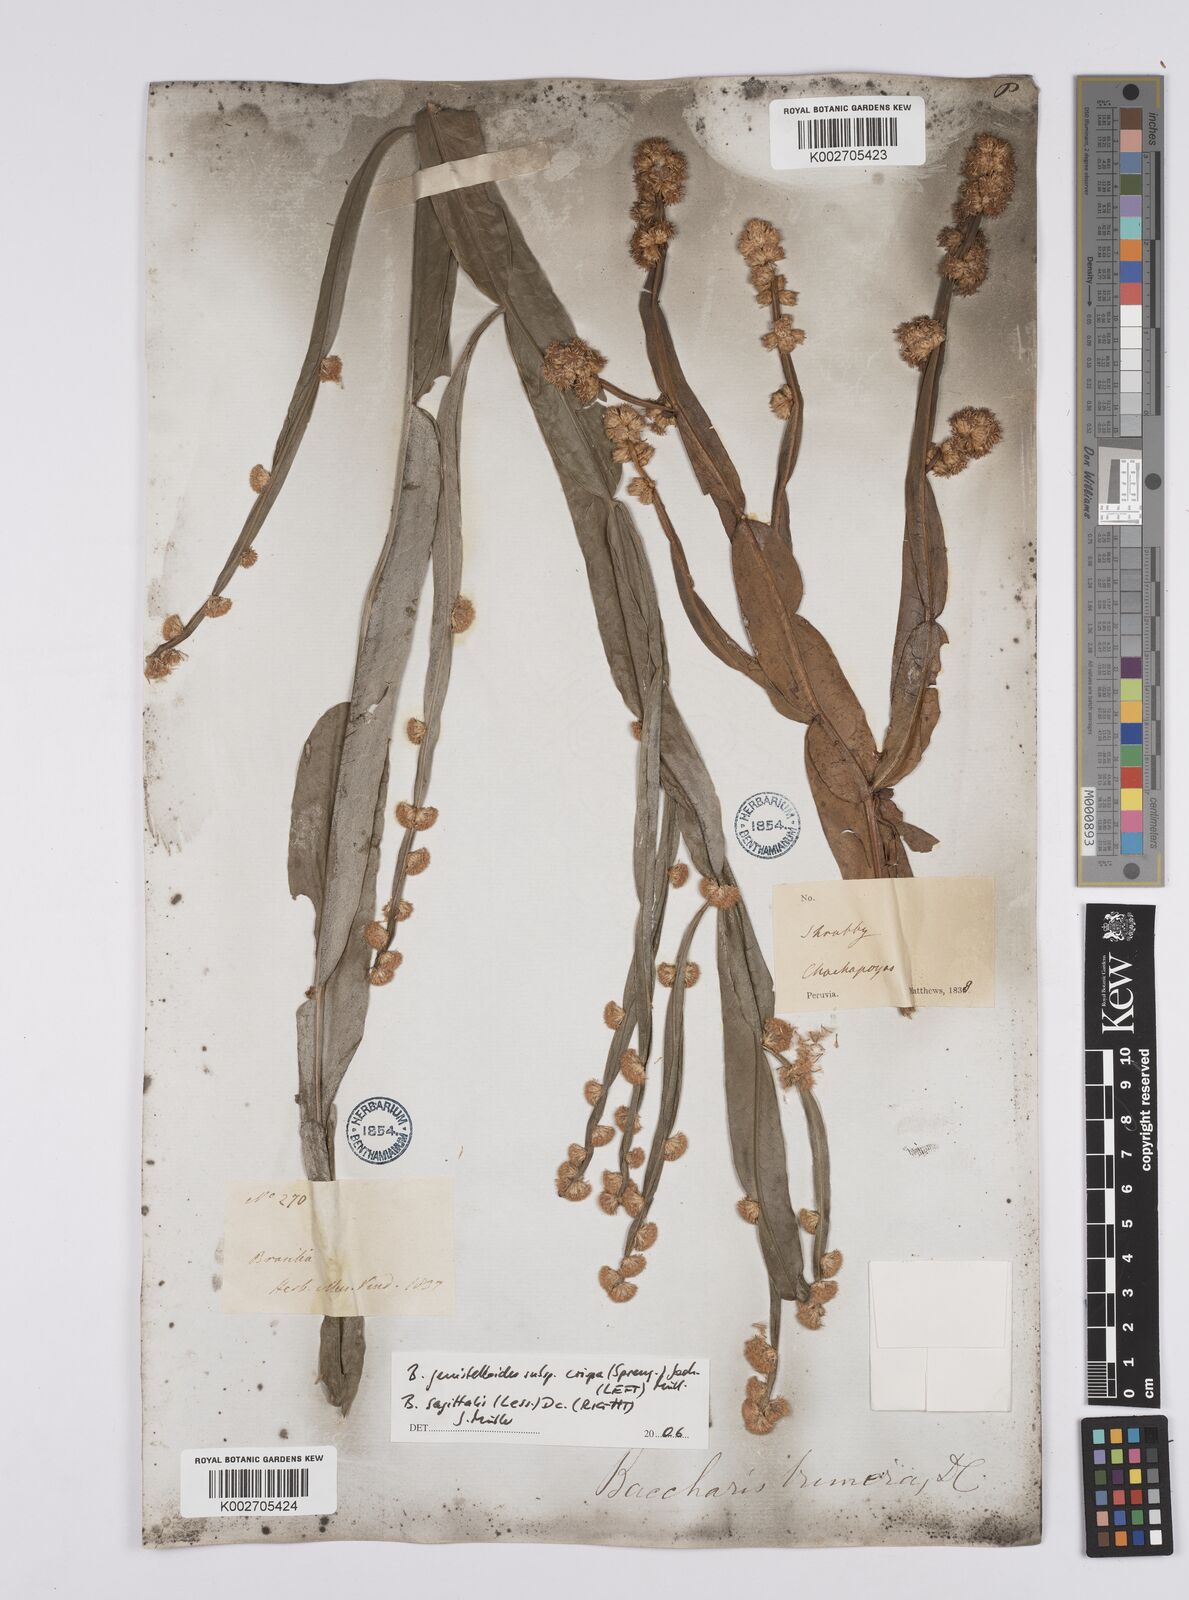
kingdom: Plantae
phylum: Tracheophyta
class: Magnoliopsida
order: Asterales
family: Asteraceae
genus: Baccharis
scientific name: Baccharis crispa
